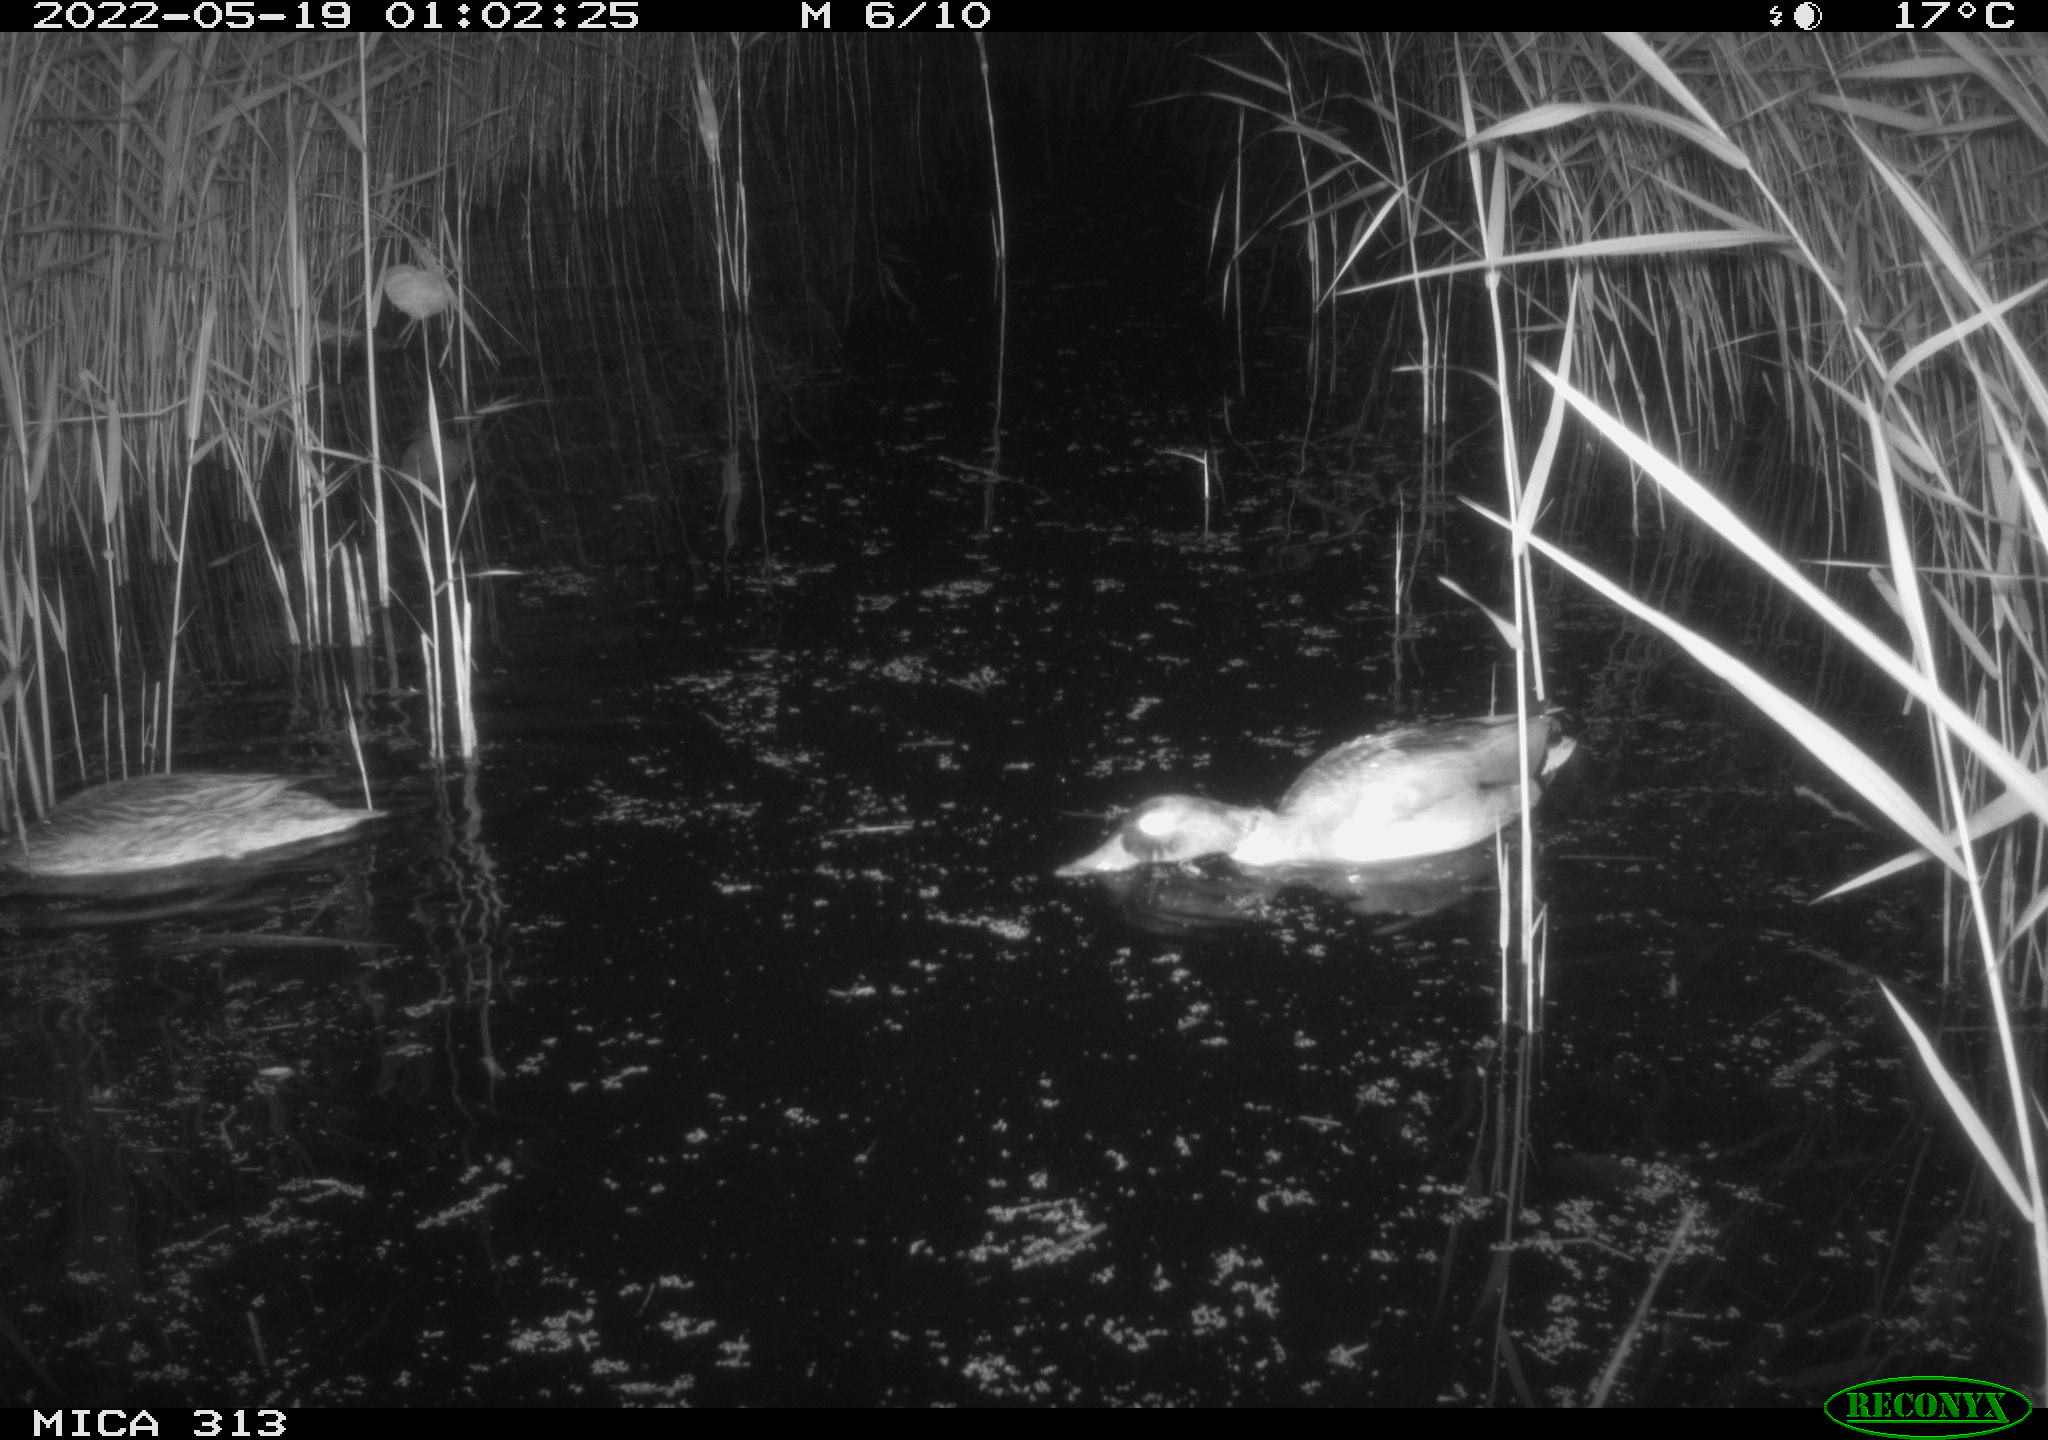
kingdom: Animalia
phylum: Chordata
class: Aves
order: Anseriformes
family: Anatidae
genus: Anas
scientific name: Anas platyrhynchos
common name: Mallard
